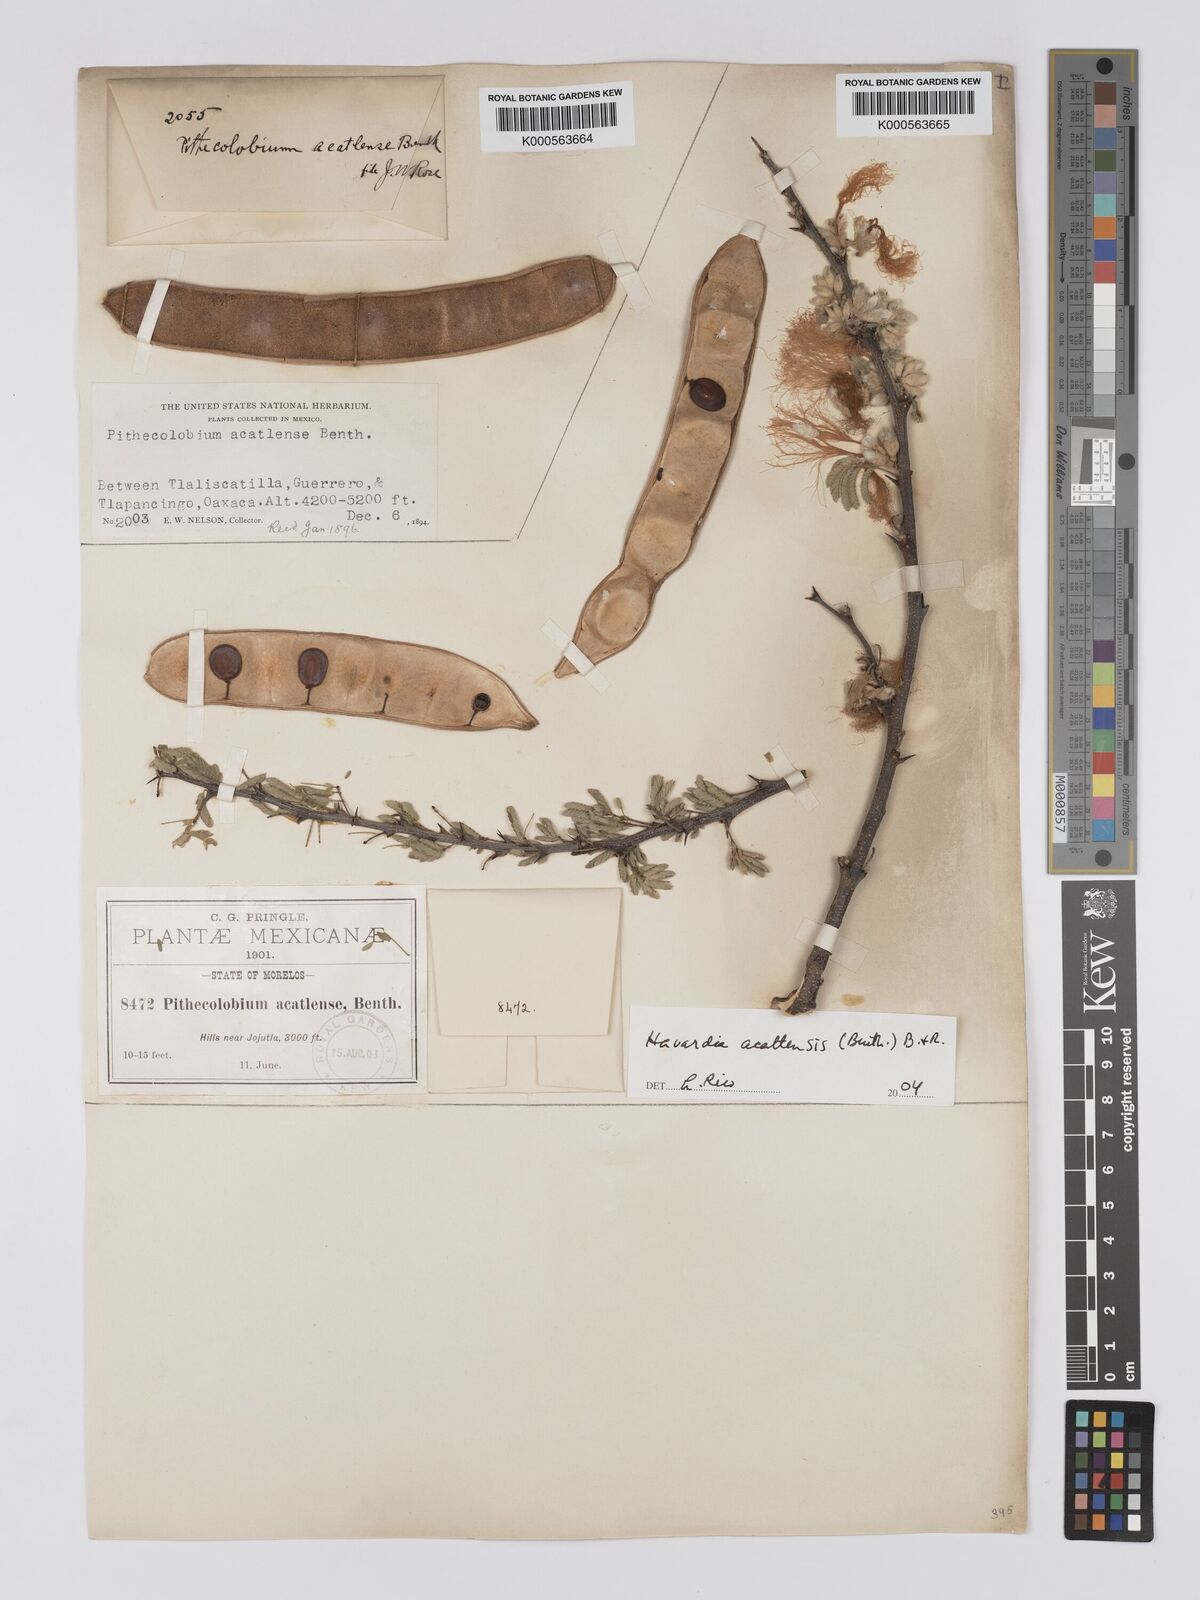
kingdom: Plantae
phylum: Tracheophyta
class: Magnoliopsida
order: Fabales
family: Fabaceae
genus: Havardia
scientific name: Havardia acatlensis
